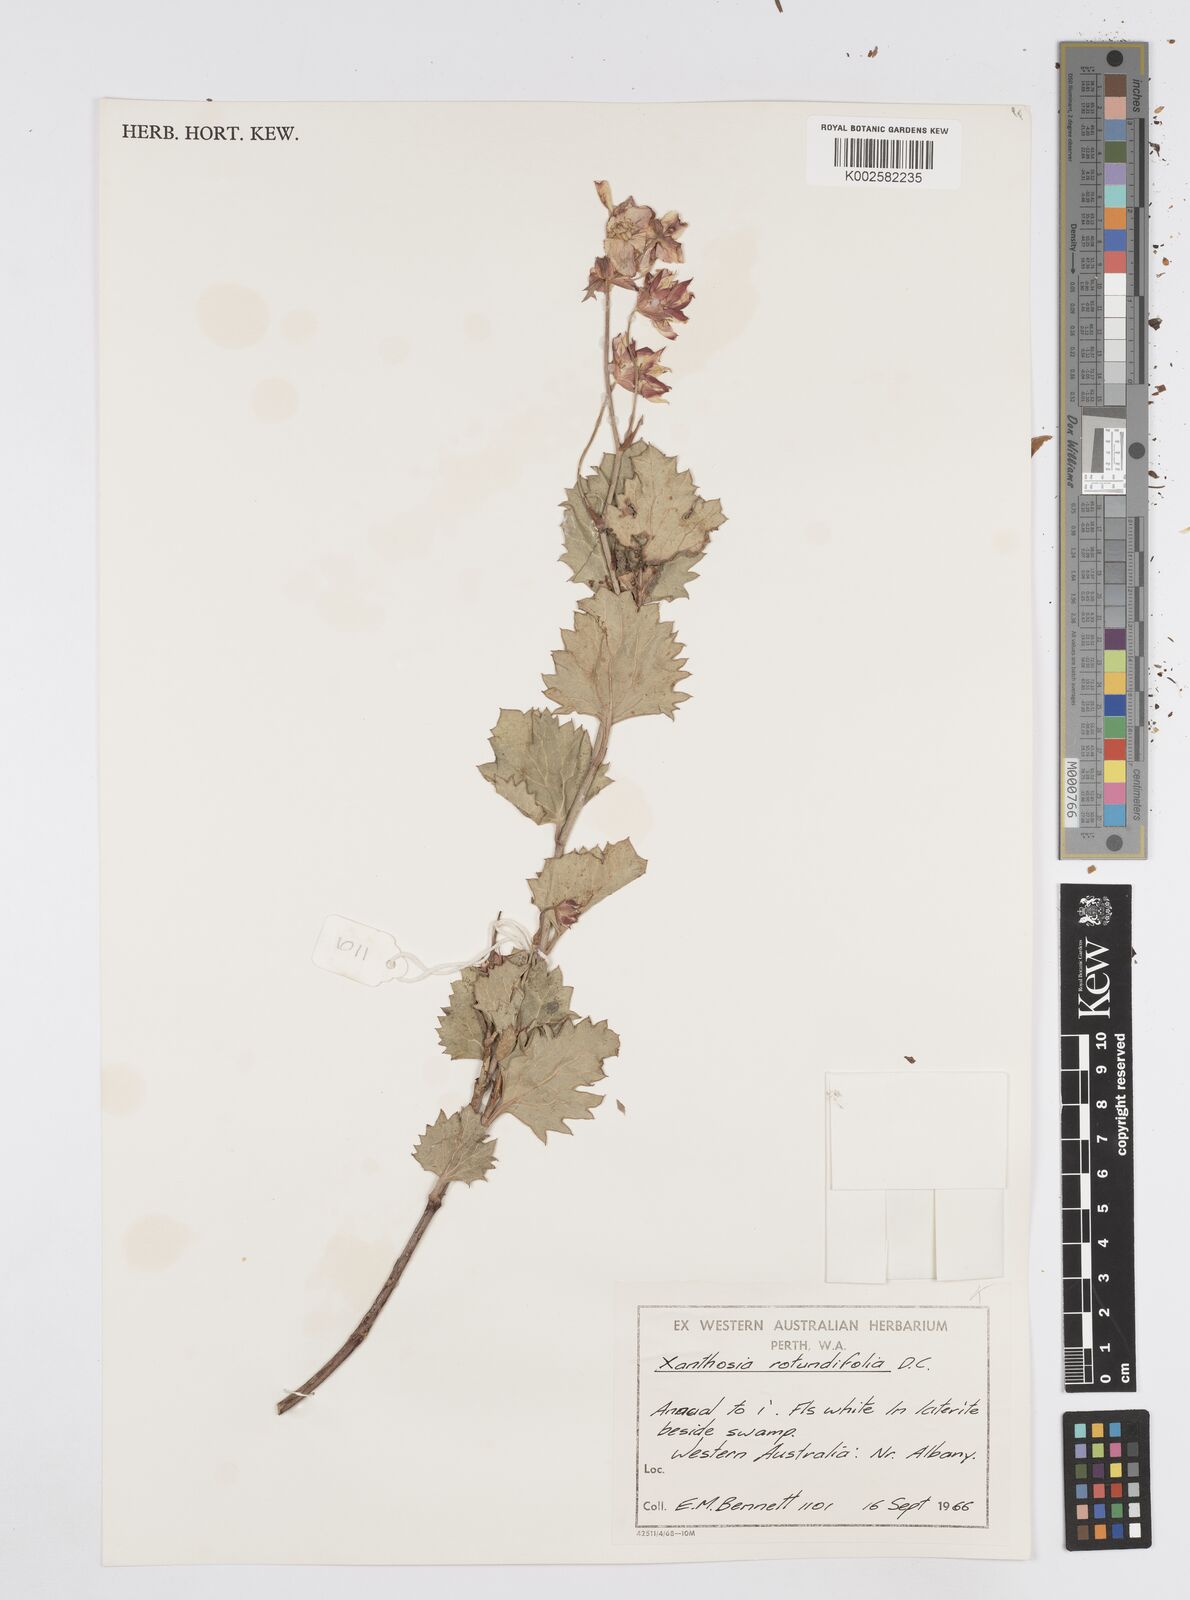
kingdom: Plantae
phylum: Tracheophyta
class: Magnoliopsida
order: Apiales
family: Apiaceae
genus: Xanthosia
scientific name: Xanthosia rotundifolia
